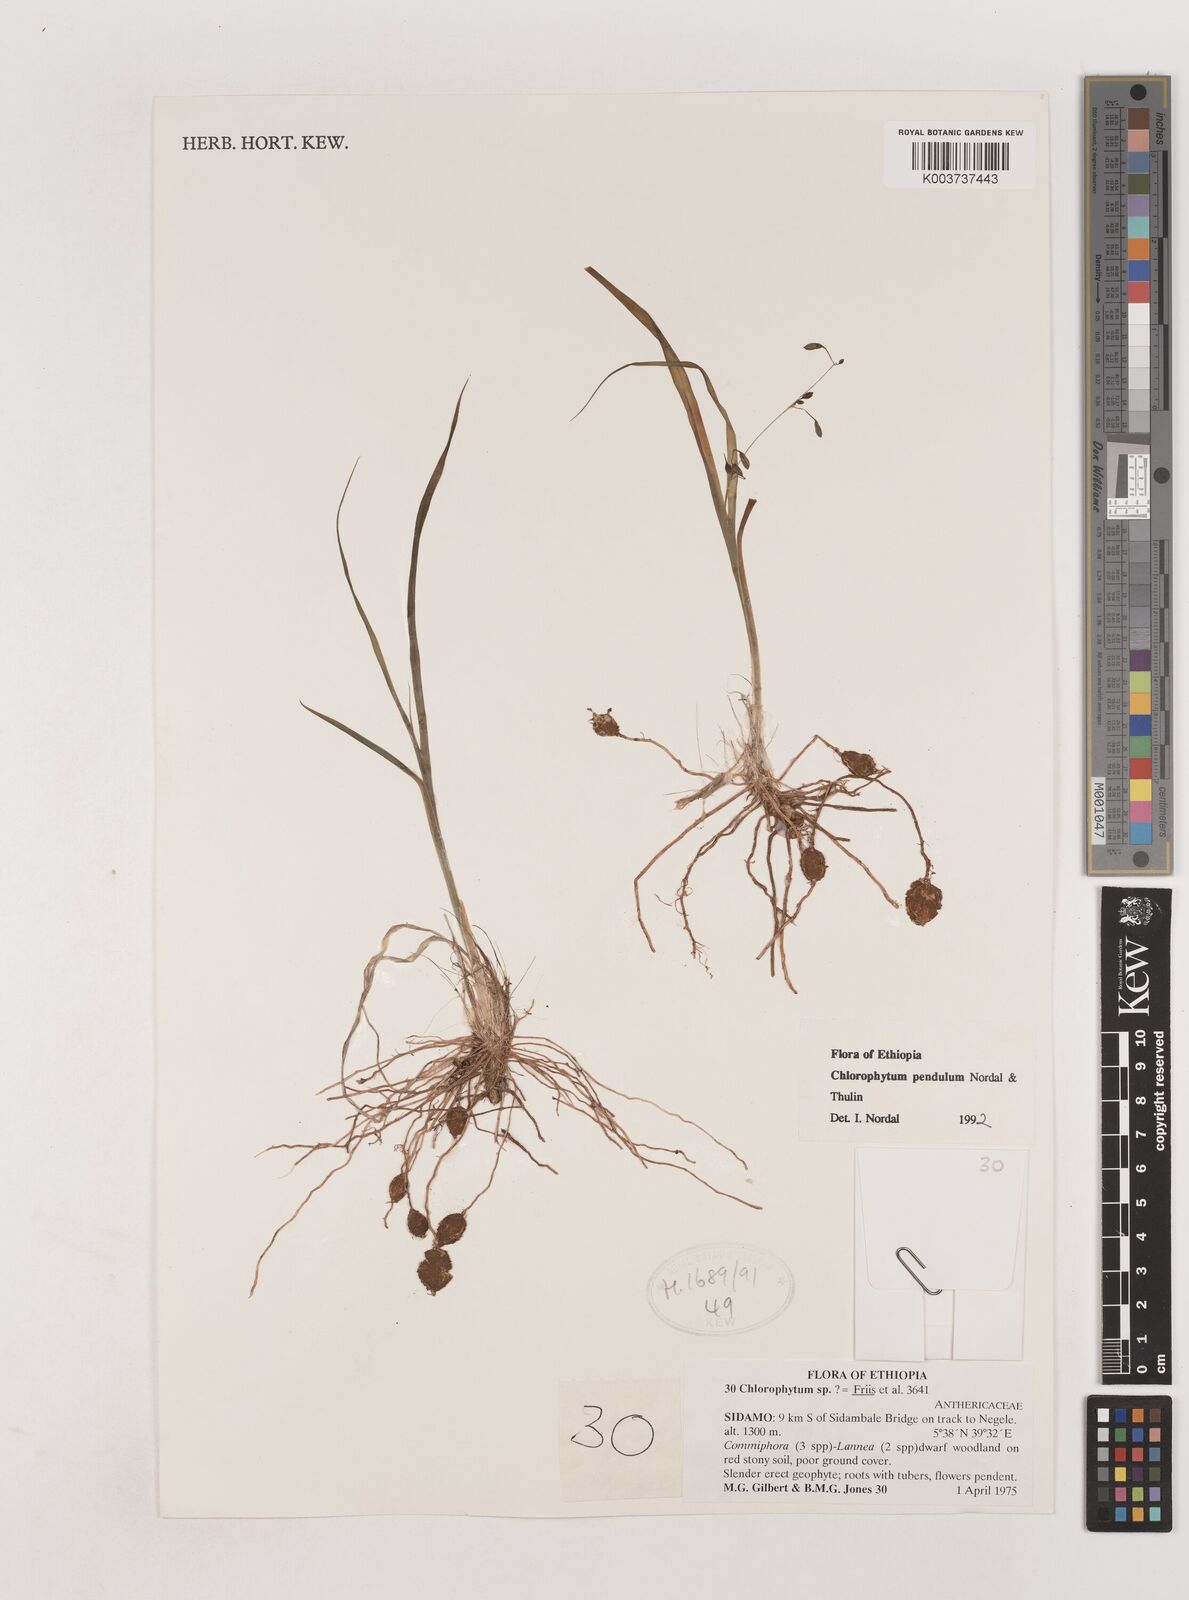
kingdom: Plantae
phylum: Tracheophyta
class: Liliopsida
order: Asparagales
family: Asparagaceae
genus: Chlorophytum
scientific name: Chlorophytum pendulum
